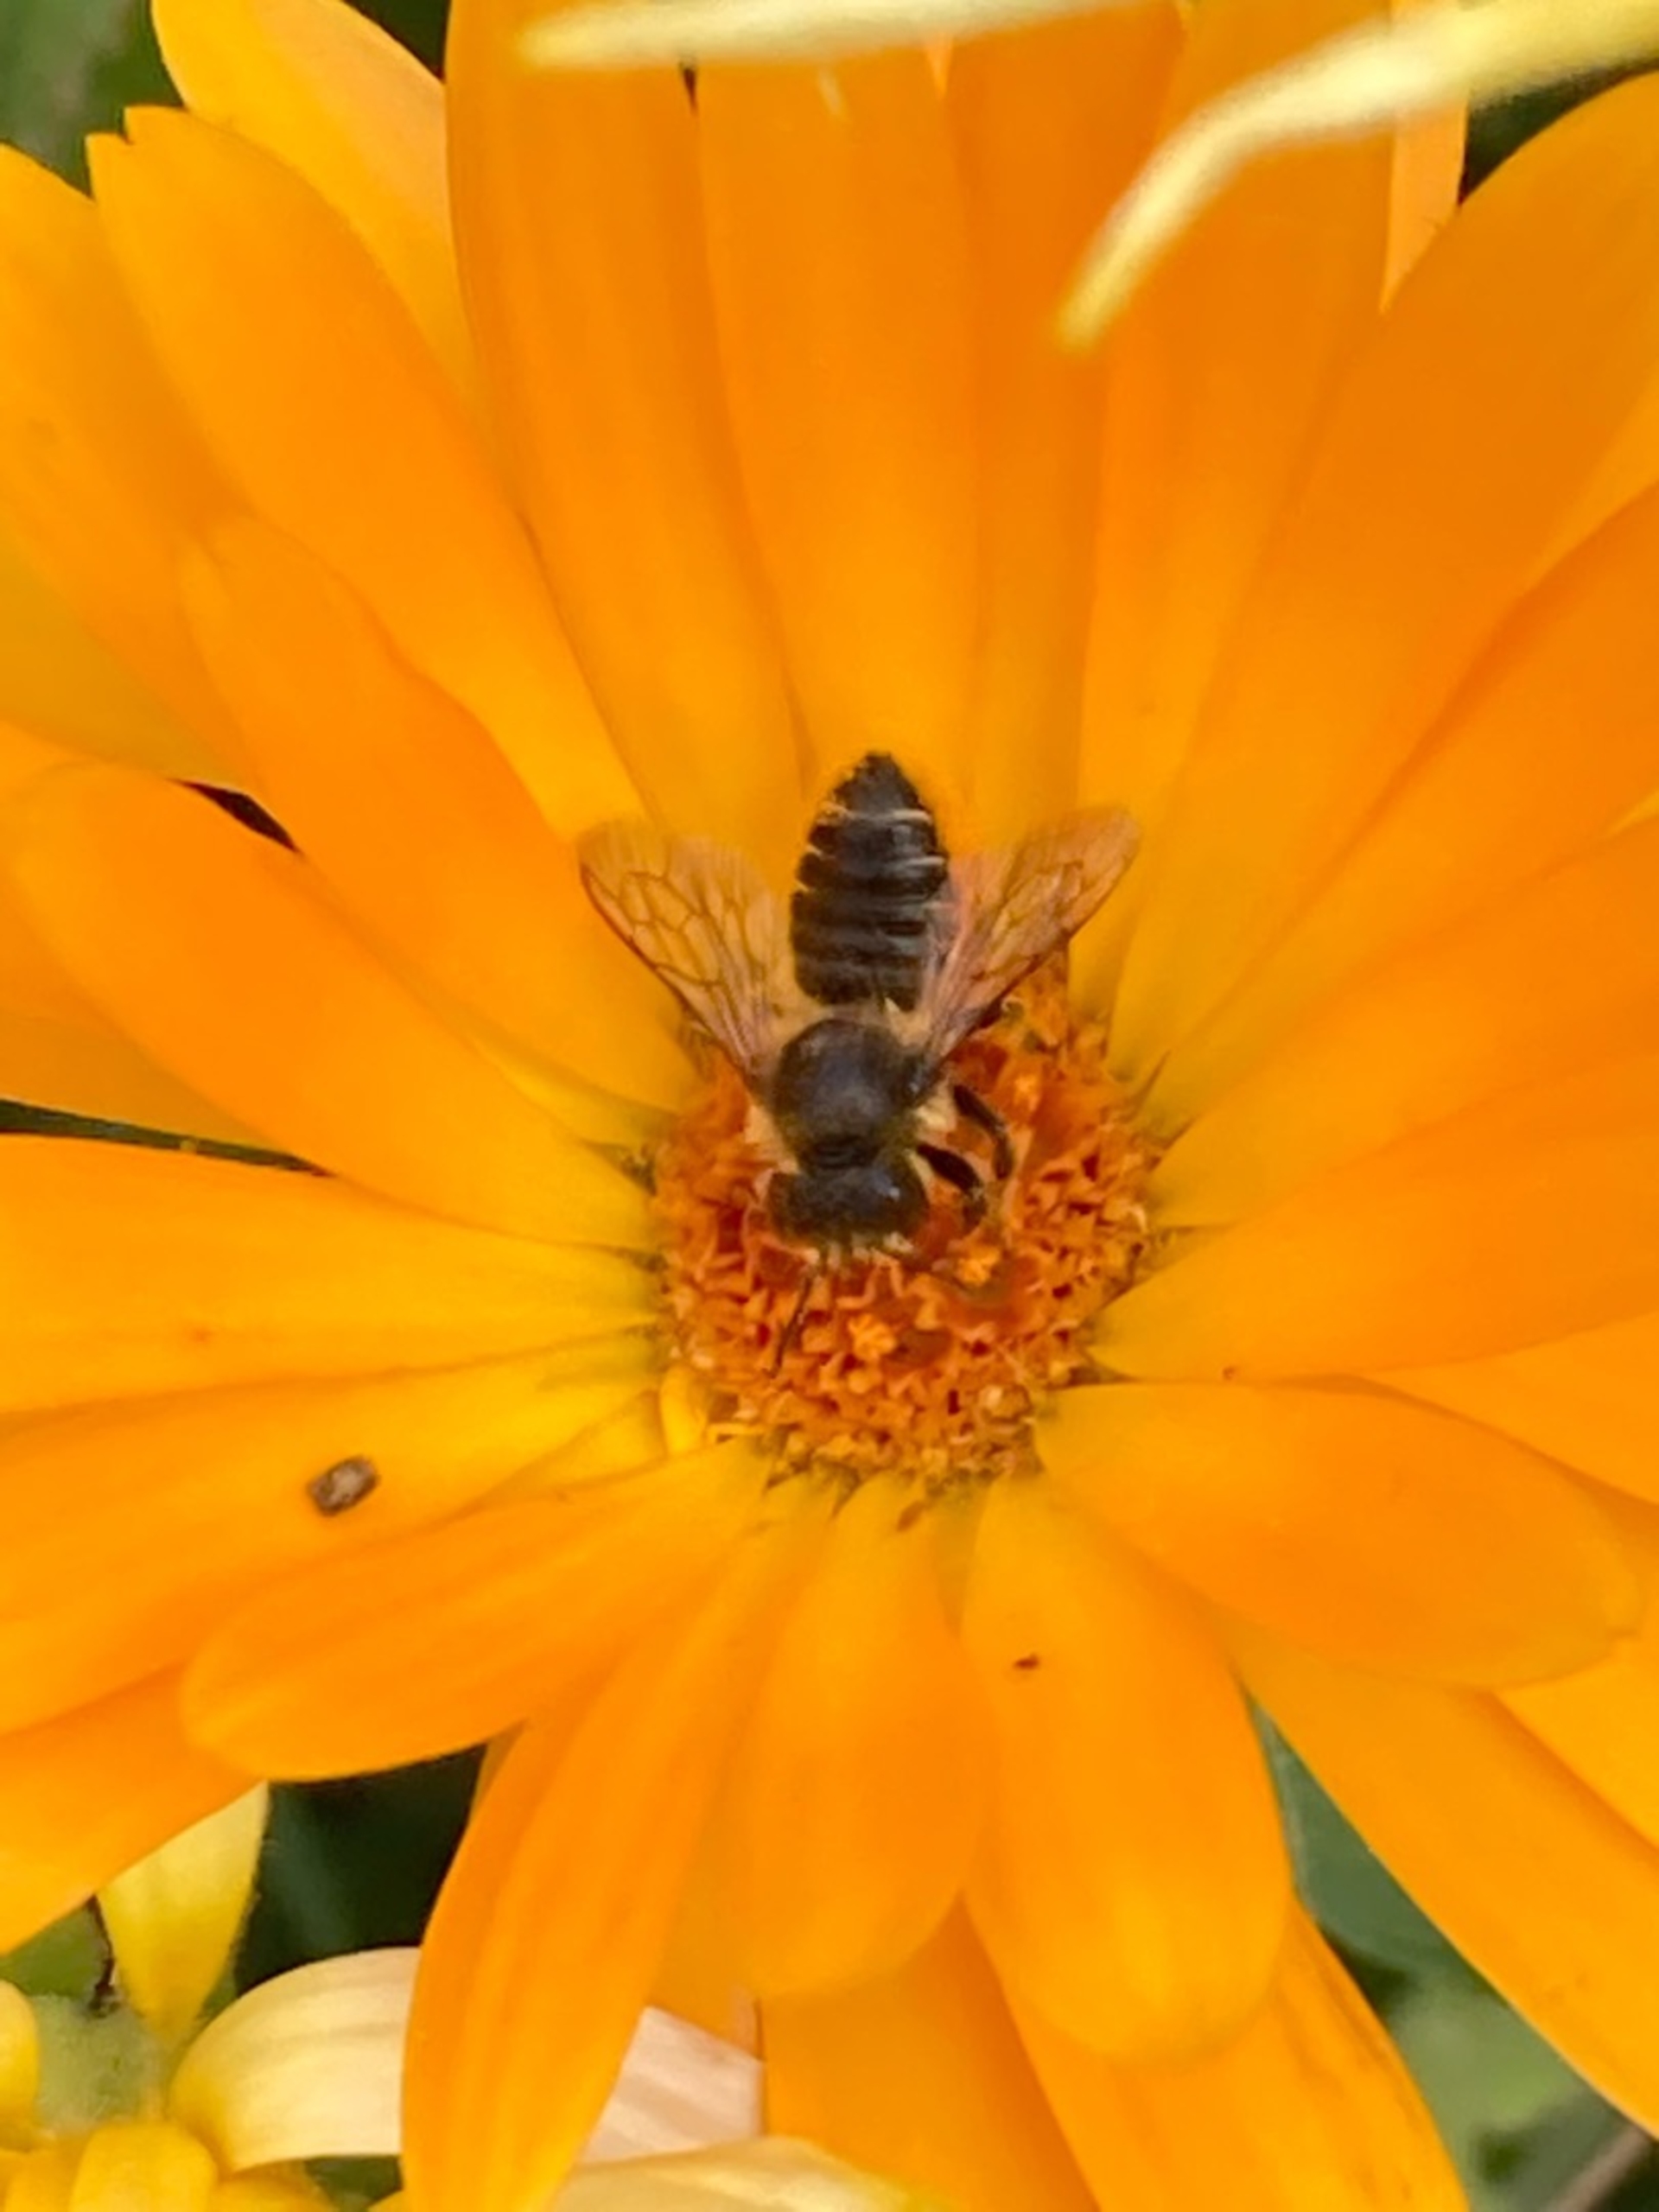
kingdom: Animalia
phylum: Arthropoda
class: Insecta
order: Hymenoptera
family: Megachilidae
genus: Megachile
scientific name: Megachile
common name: Bladskærerbier
